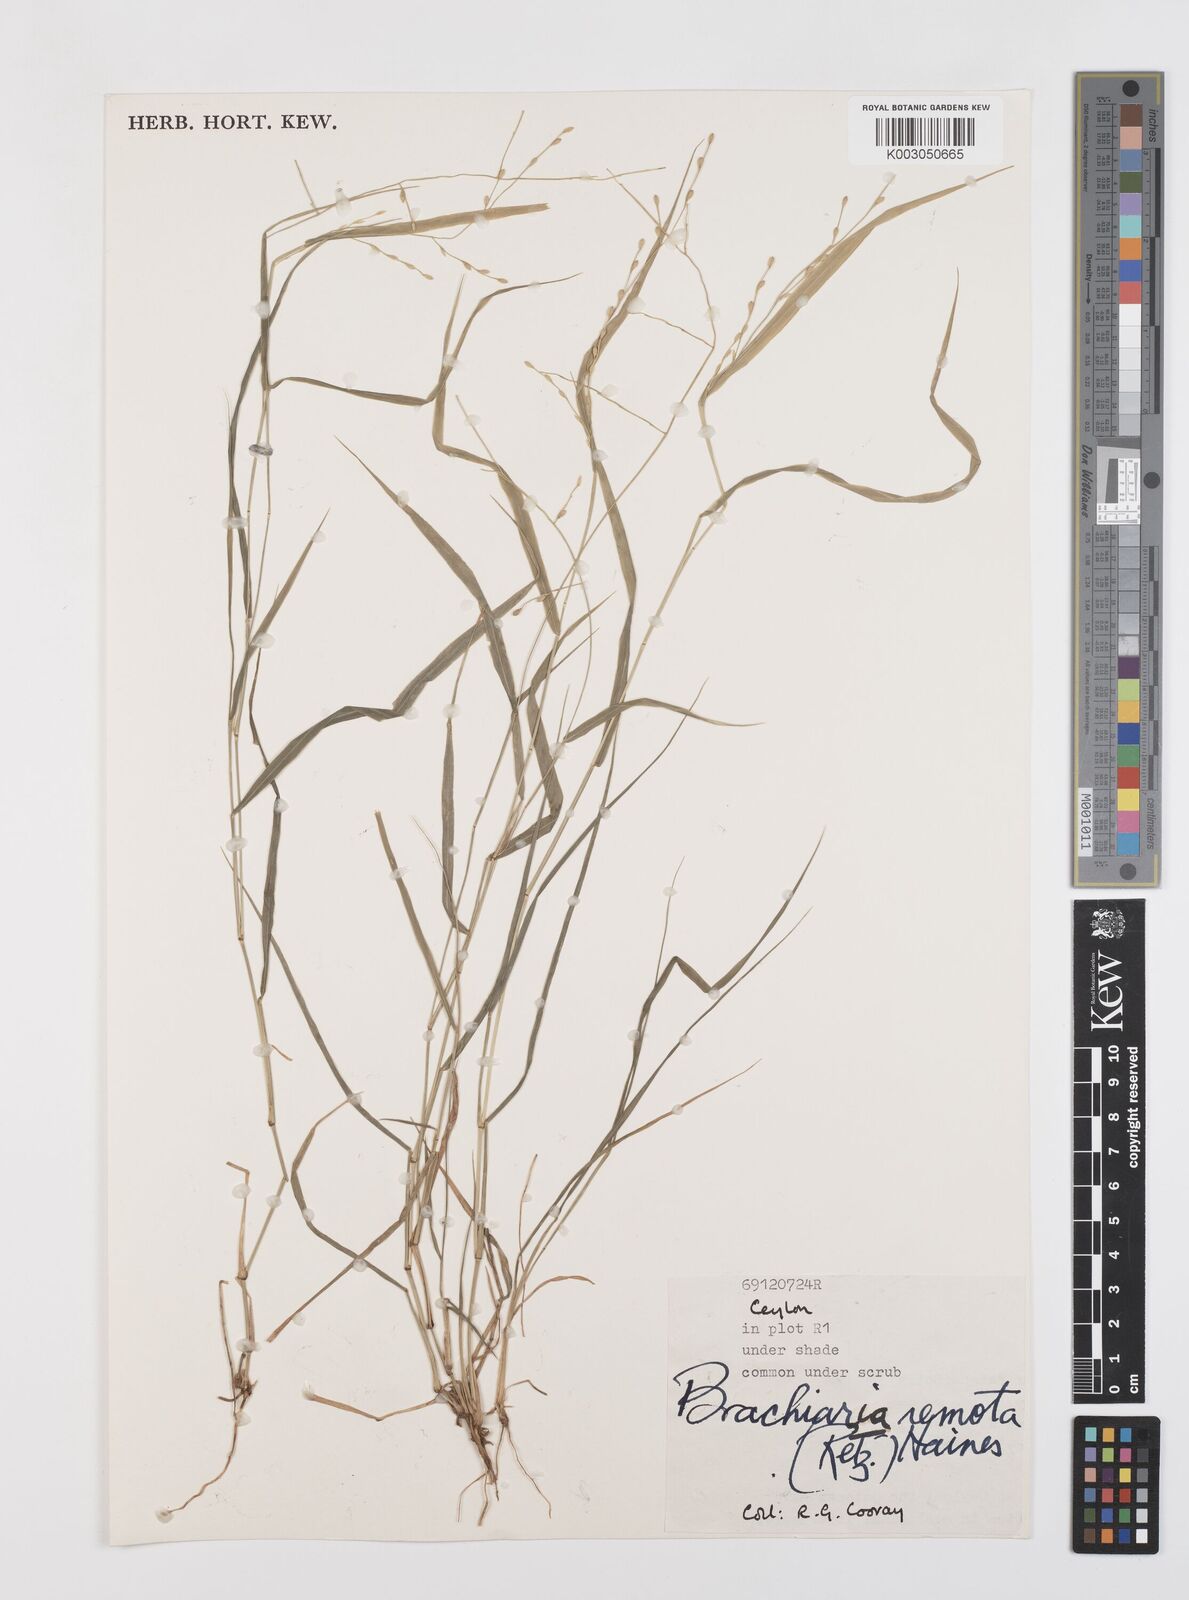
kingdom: Plantae
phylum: Tracheophyta
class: Liliopsida
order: Poales
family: Poaceae
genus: Urochloa
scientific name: Urochloa Brachiaria remota
